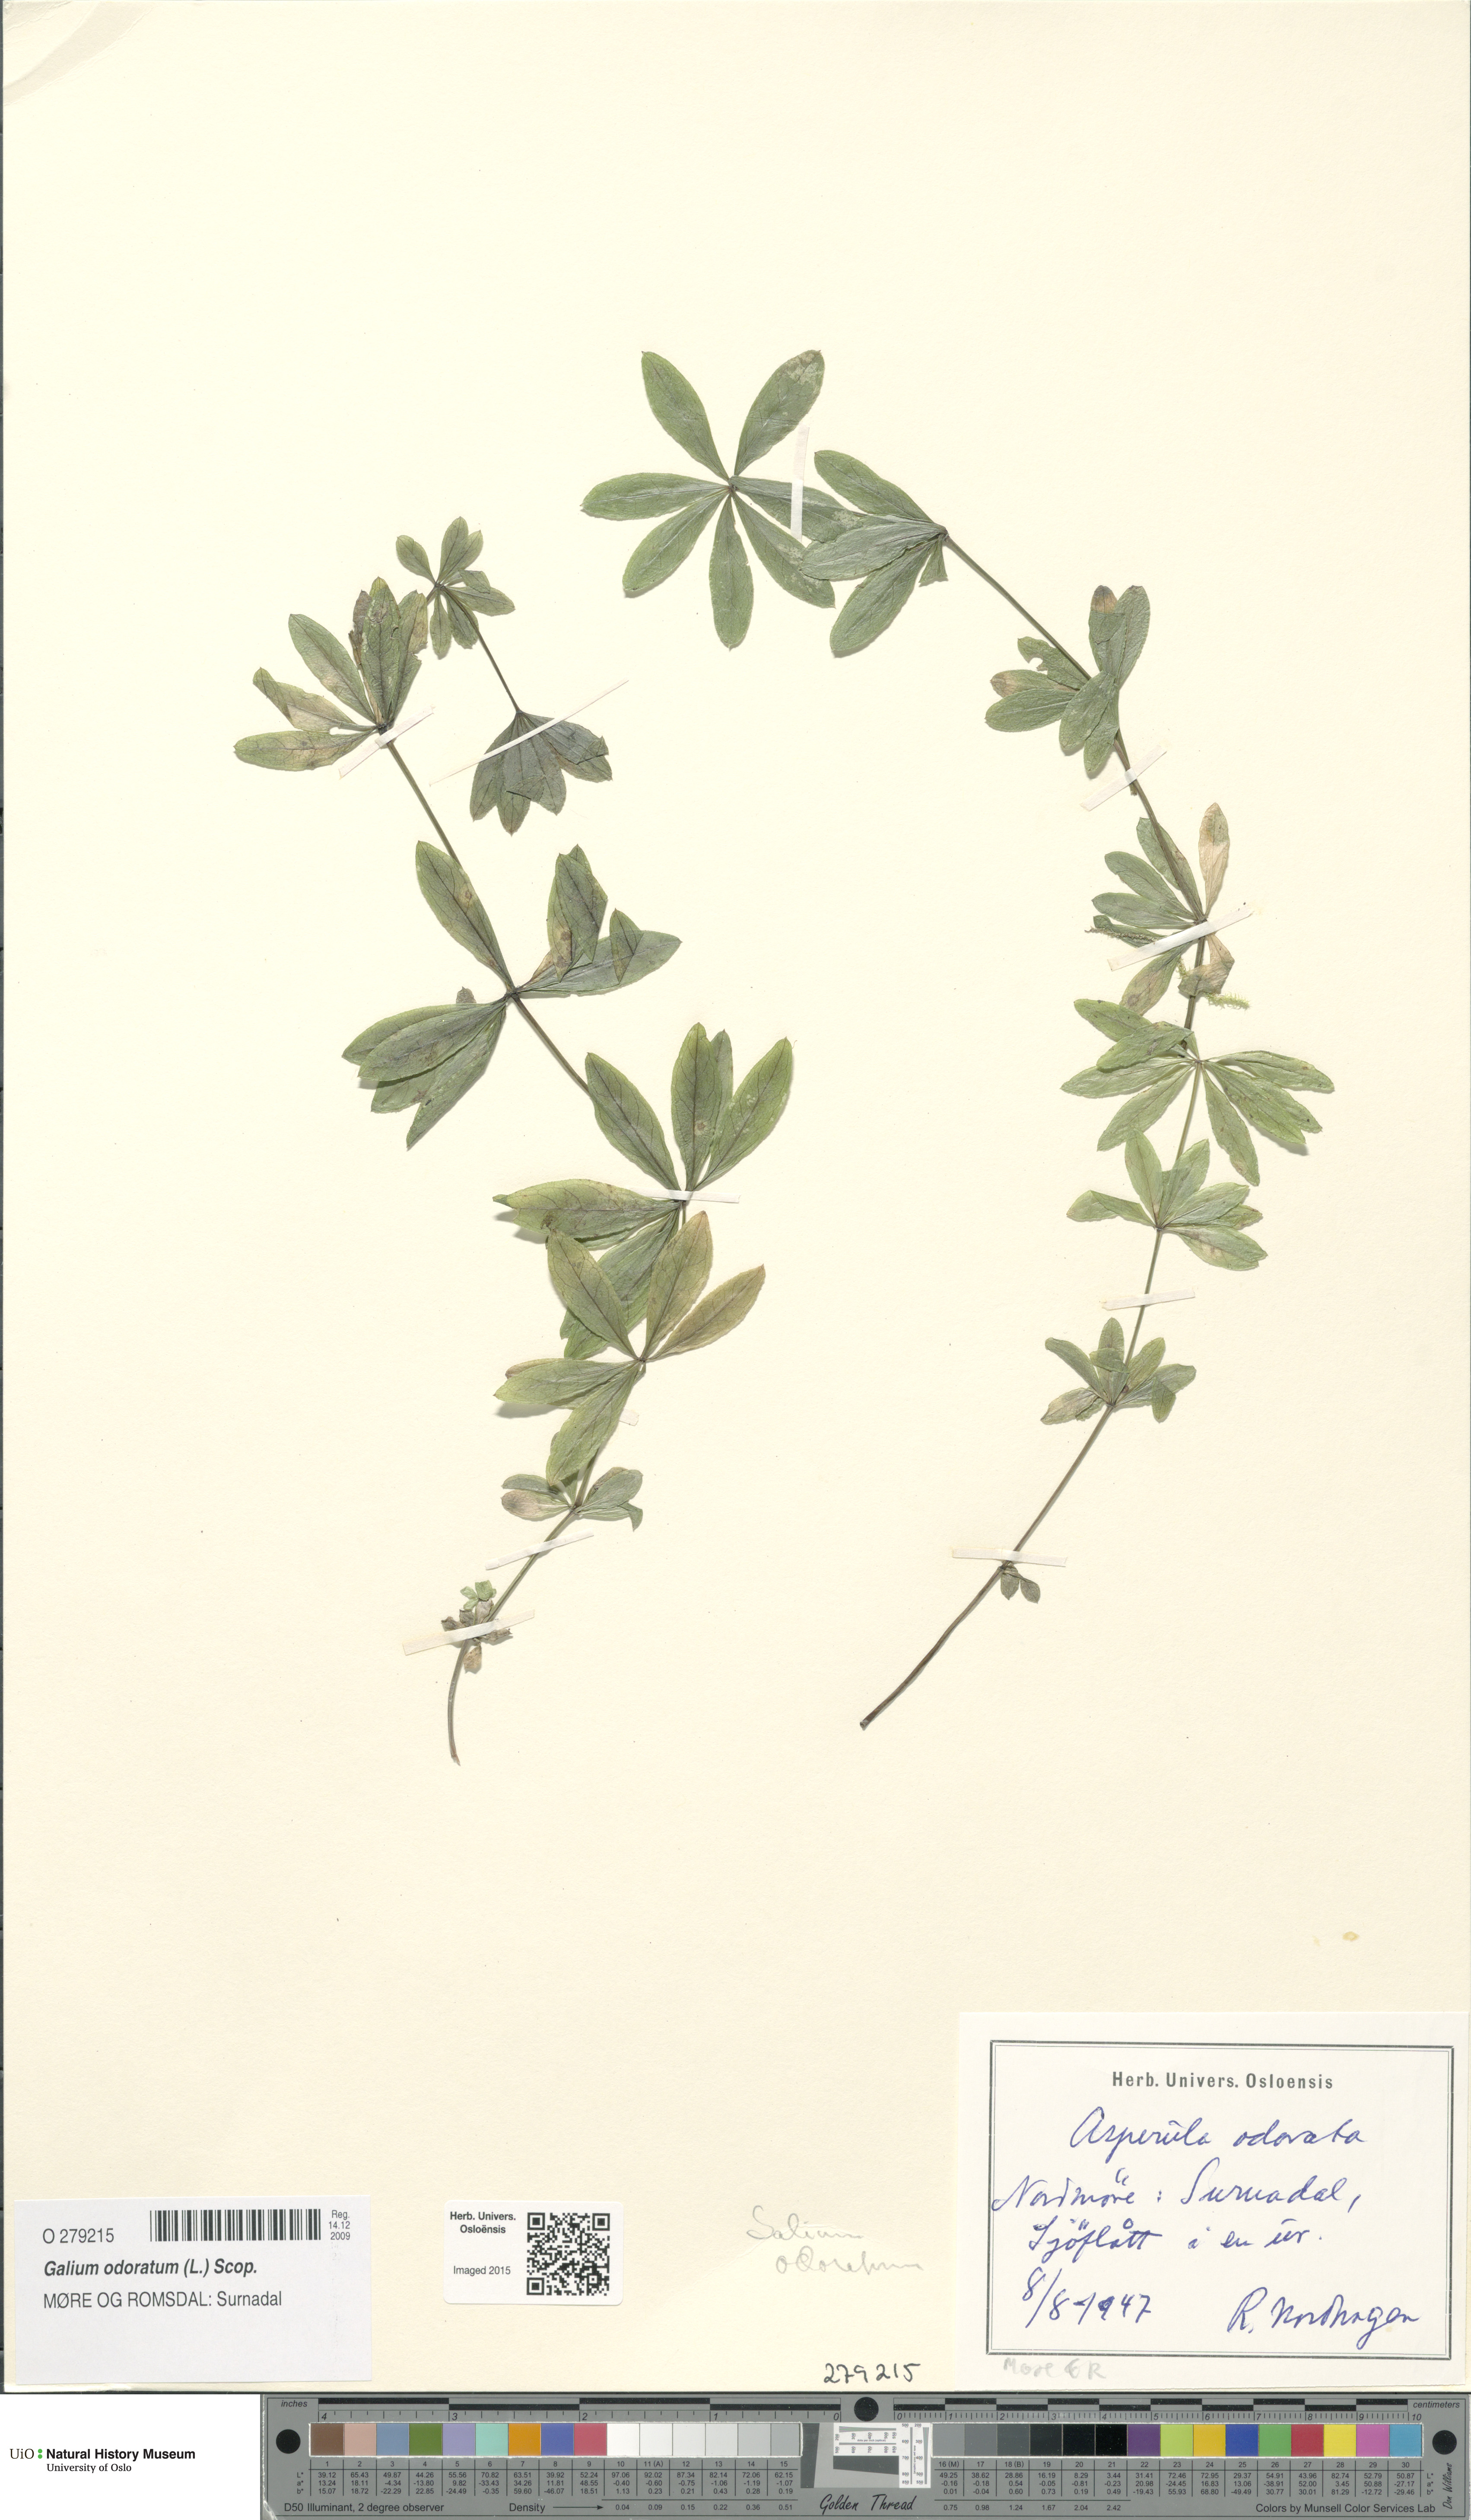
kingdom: Plantae
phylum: Tracheophyta
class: Magnoliopsida
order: Gentianales
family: Rubiaceae
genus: Galium
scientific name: Galium odoratum
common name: Sweet woodruff
